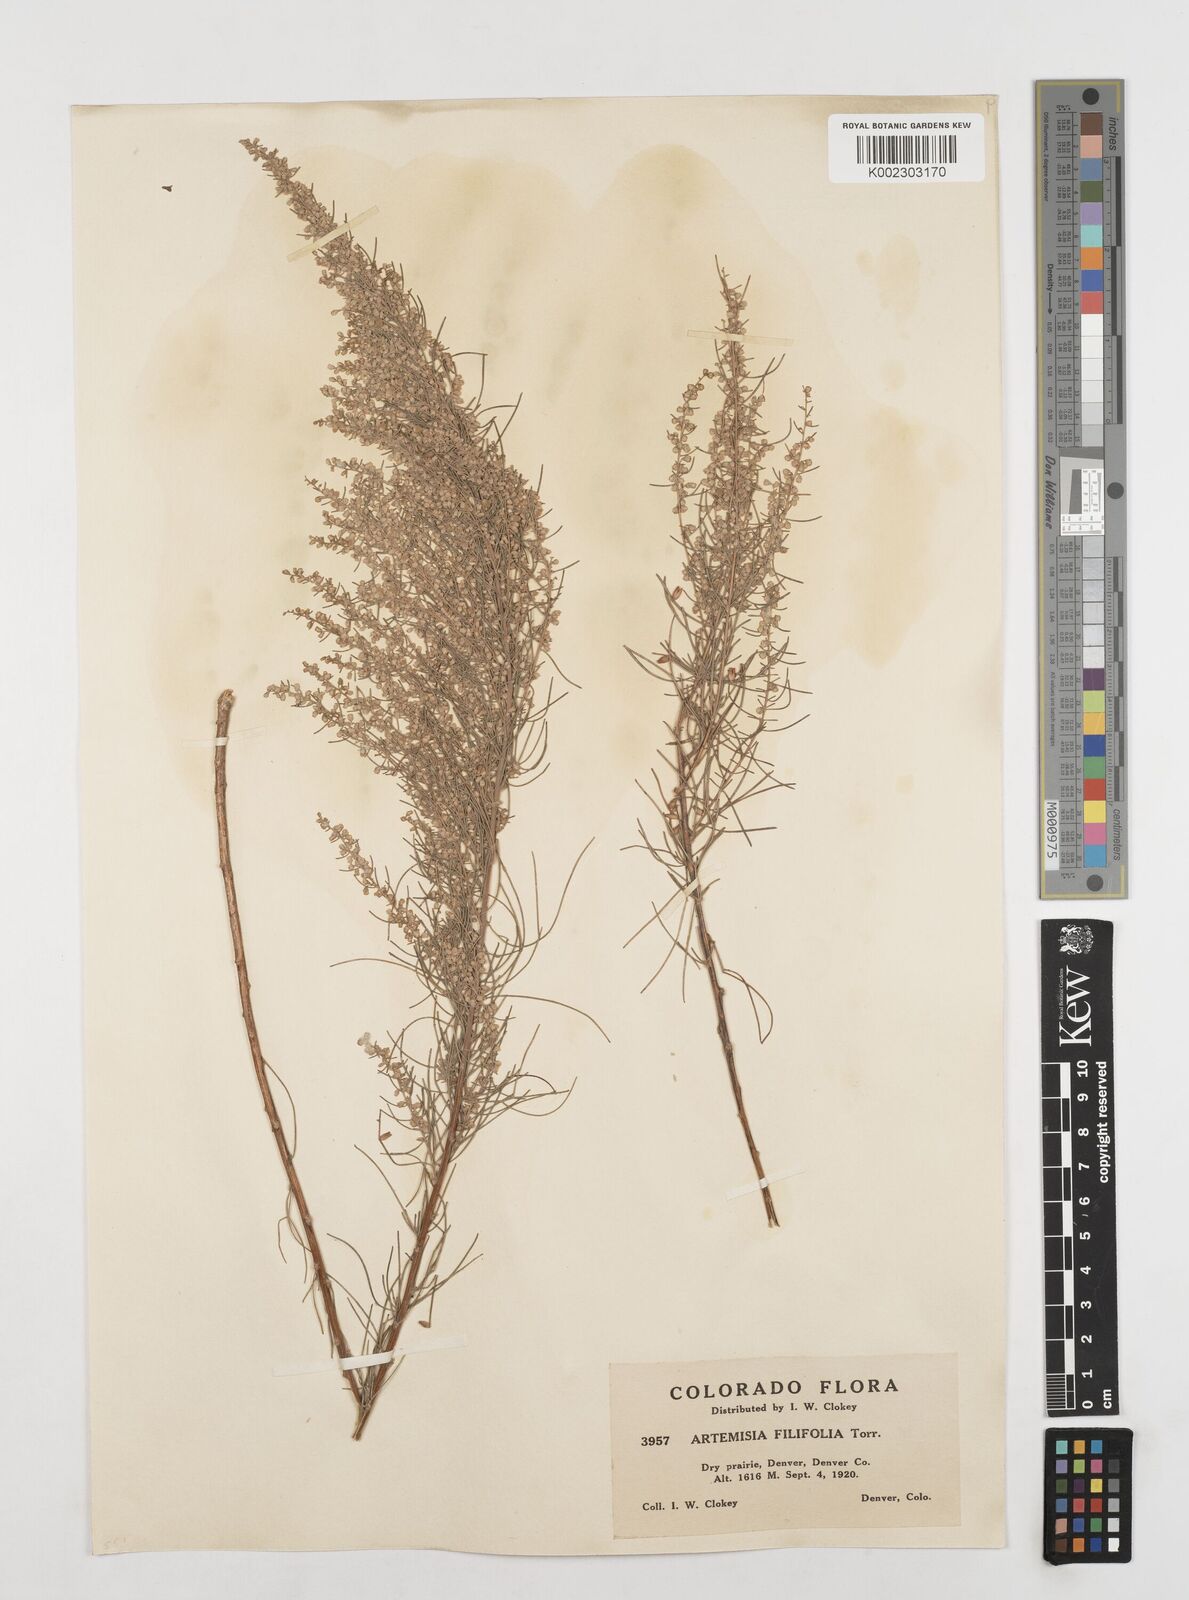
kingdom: Plantae
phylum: Tracheophyta
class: Magnoliopsida
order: Asterales
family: Asteraceae
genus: Artemisia
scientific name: Artemisia filifolia
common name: Sand-sage
